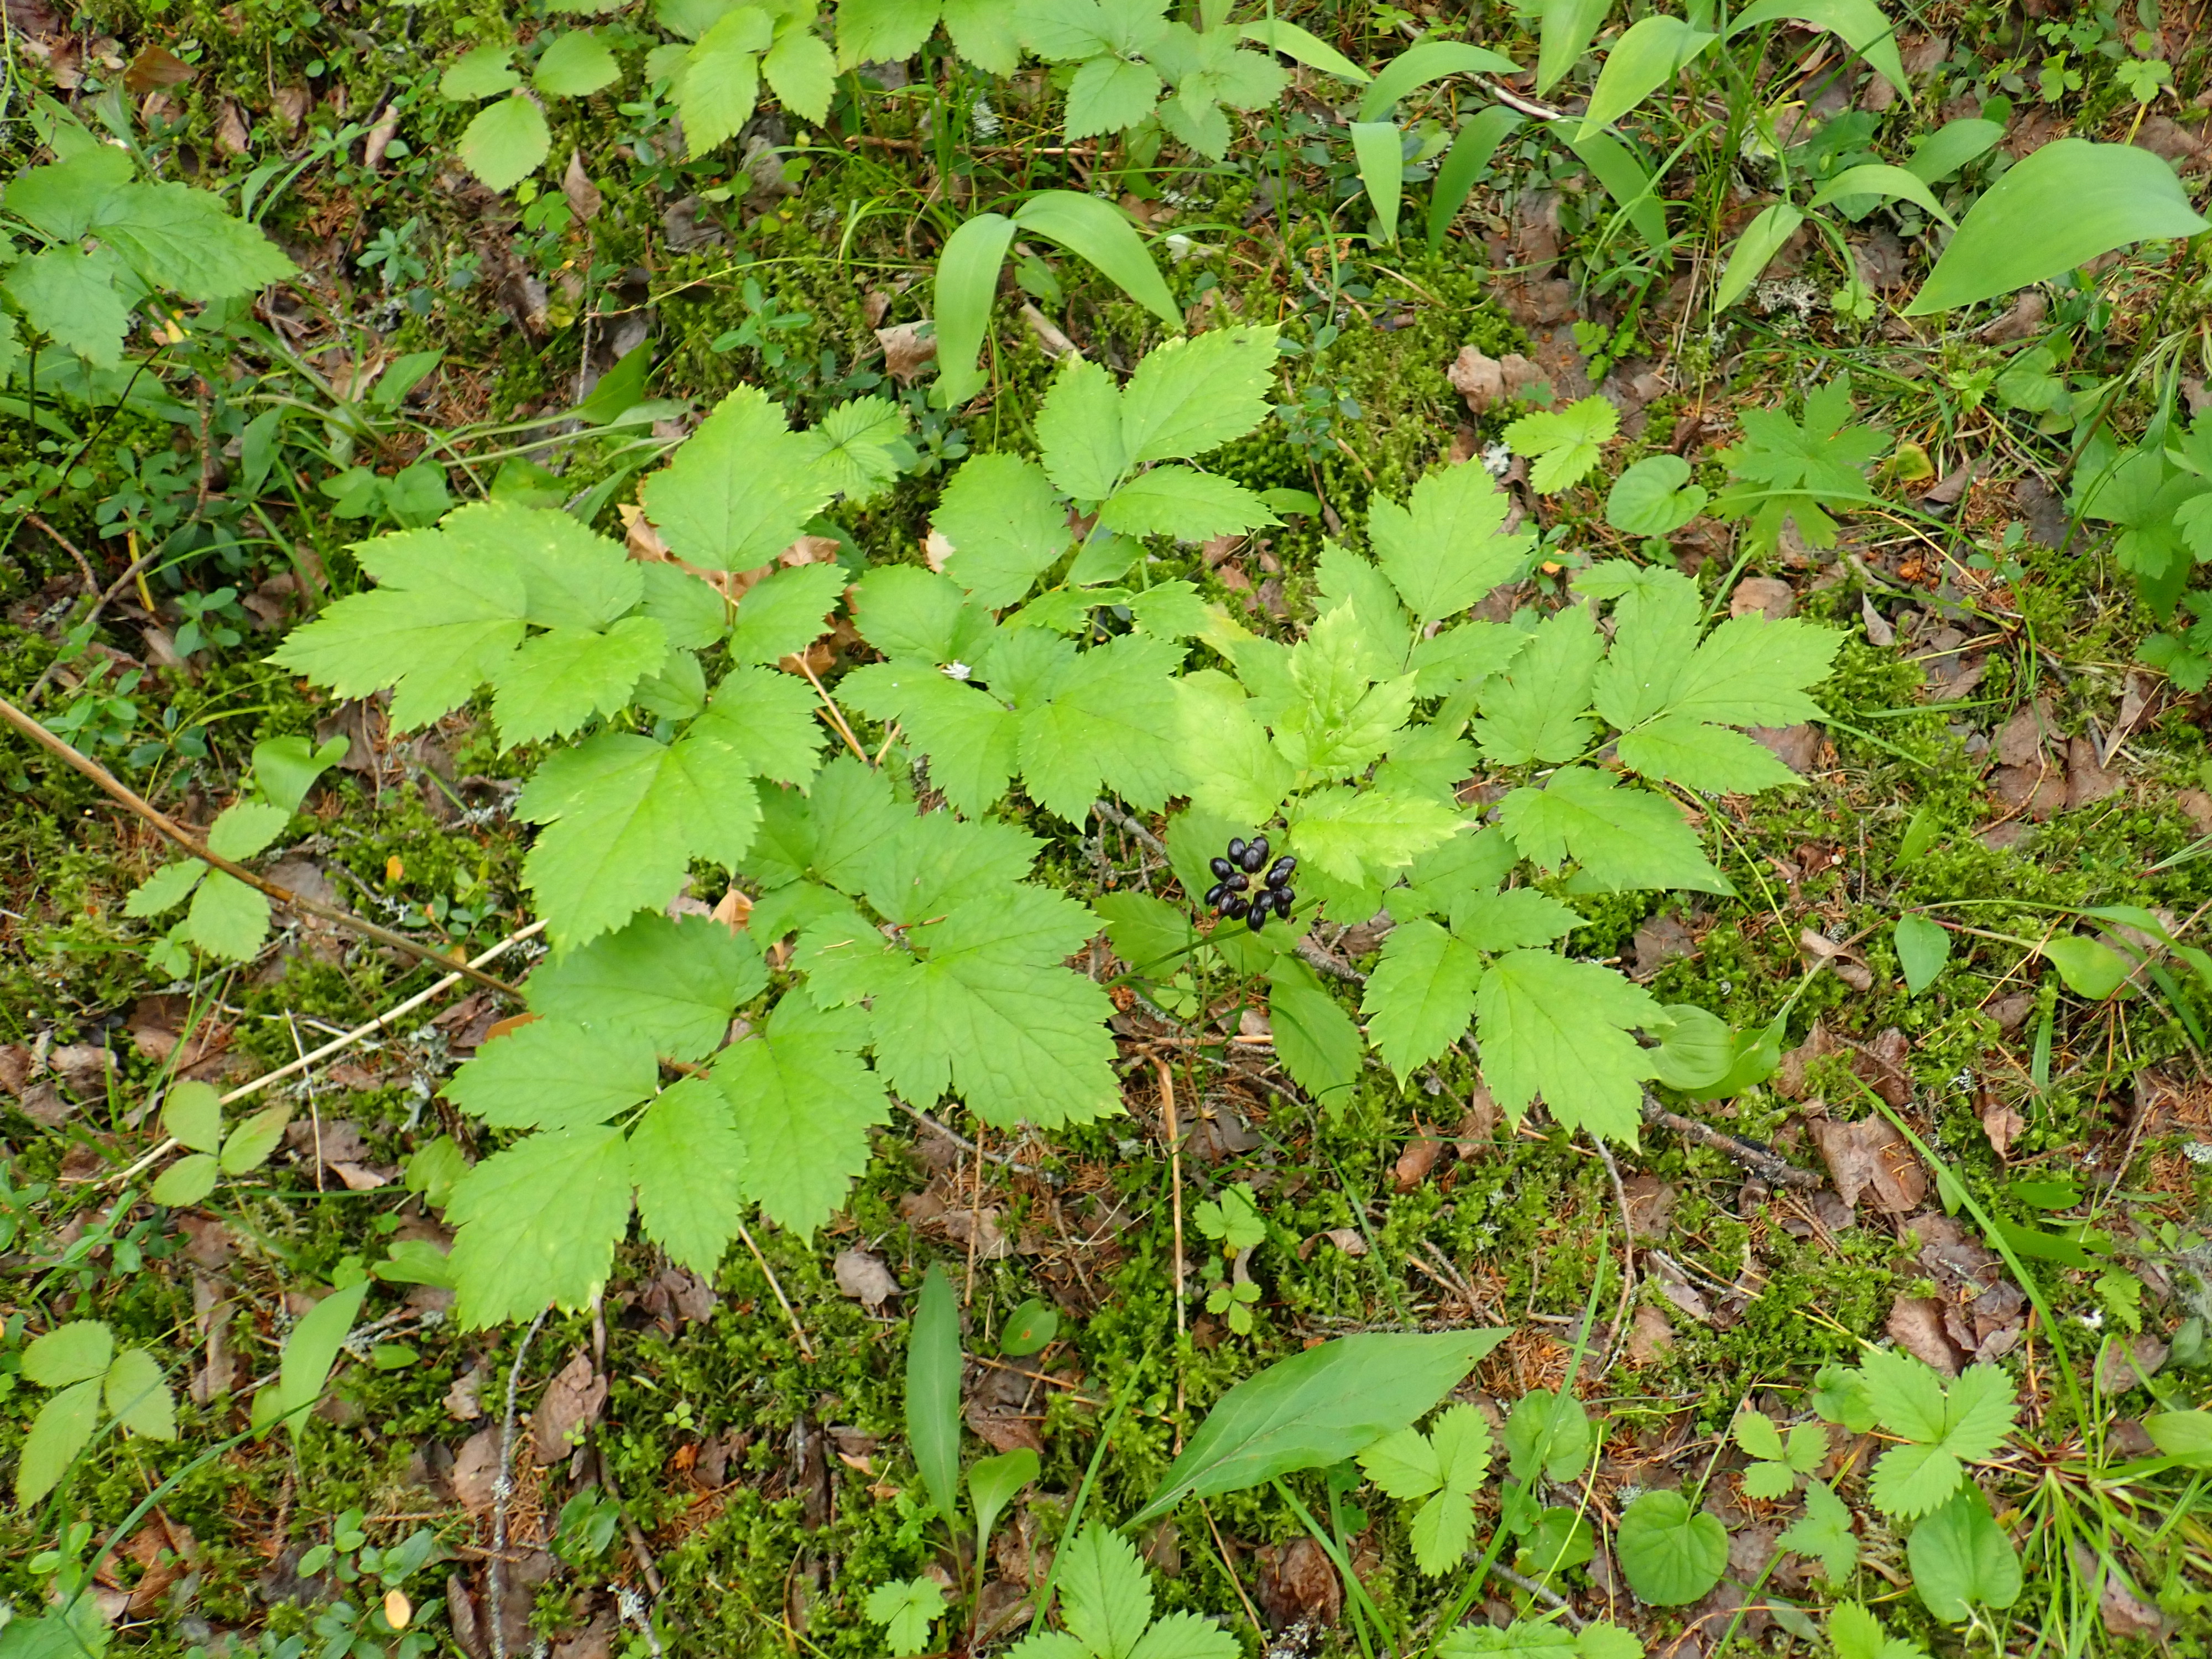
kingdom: Plantae
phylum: Tracheophyta
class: Magnoliopsida
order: Ranunculales
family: Ranunculaceae
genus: Actaea
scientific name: Actaea spicata
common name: Baneberry
